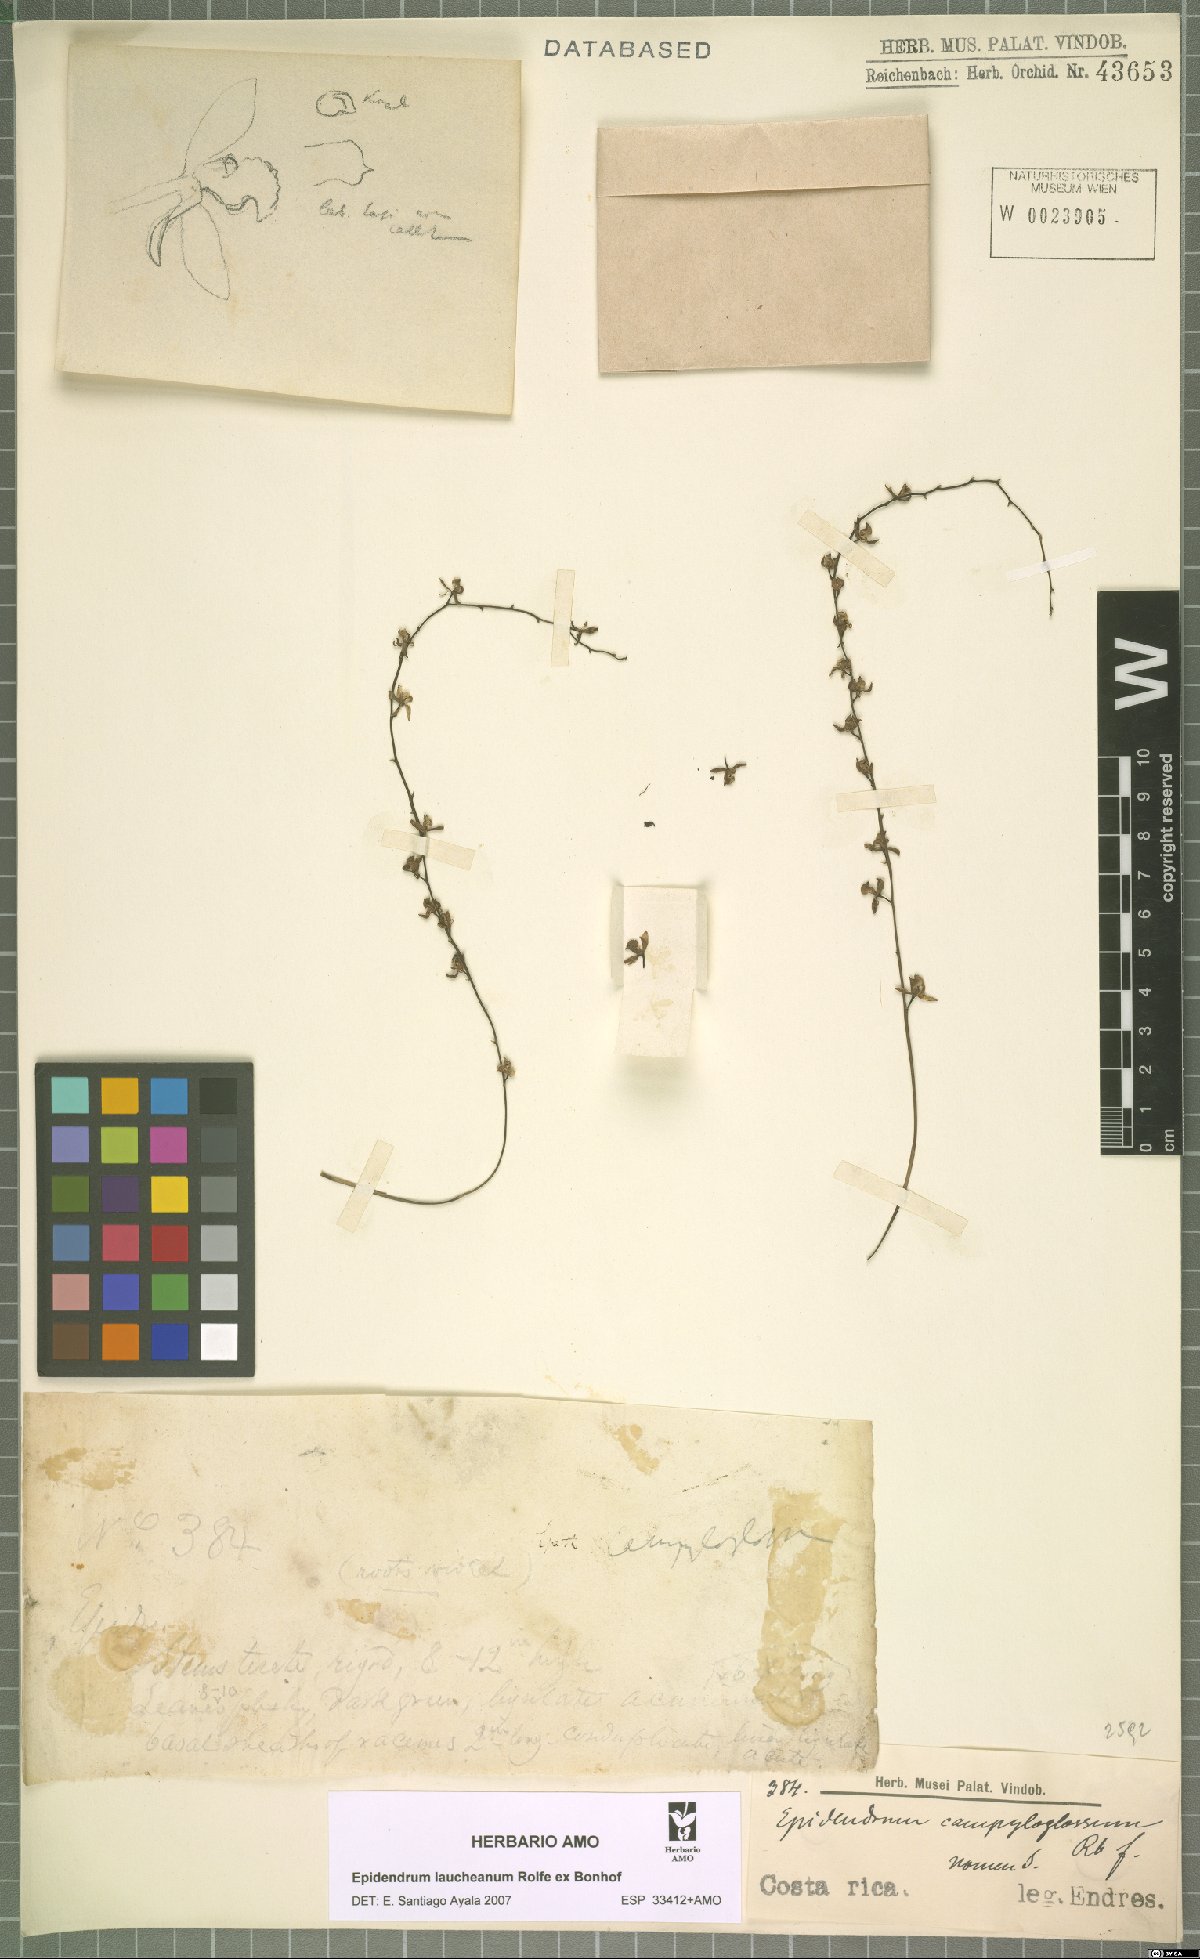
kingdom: Plantae
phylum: Tracheophyta
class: Liliopsida
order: Asparagales
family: Orchidaceae
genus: Epidendrum
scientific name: Epidendrum laucheanum
